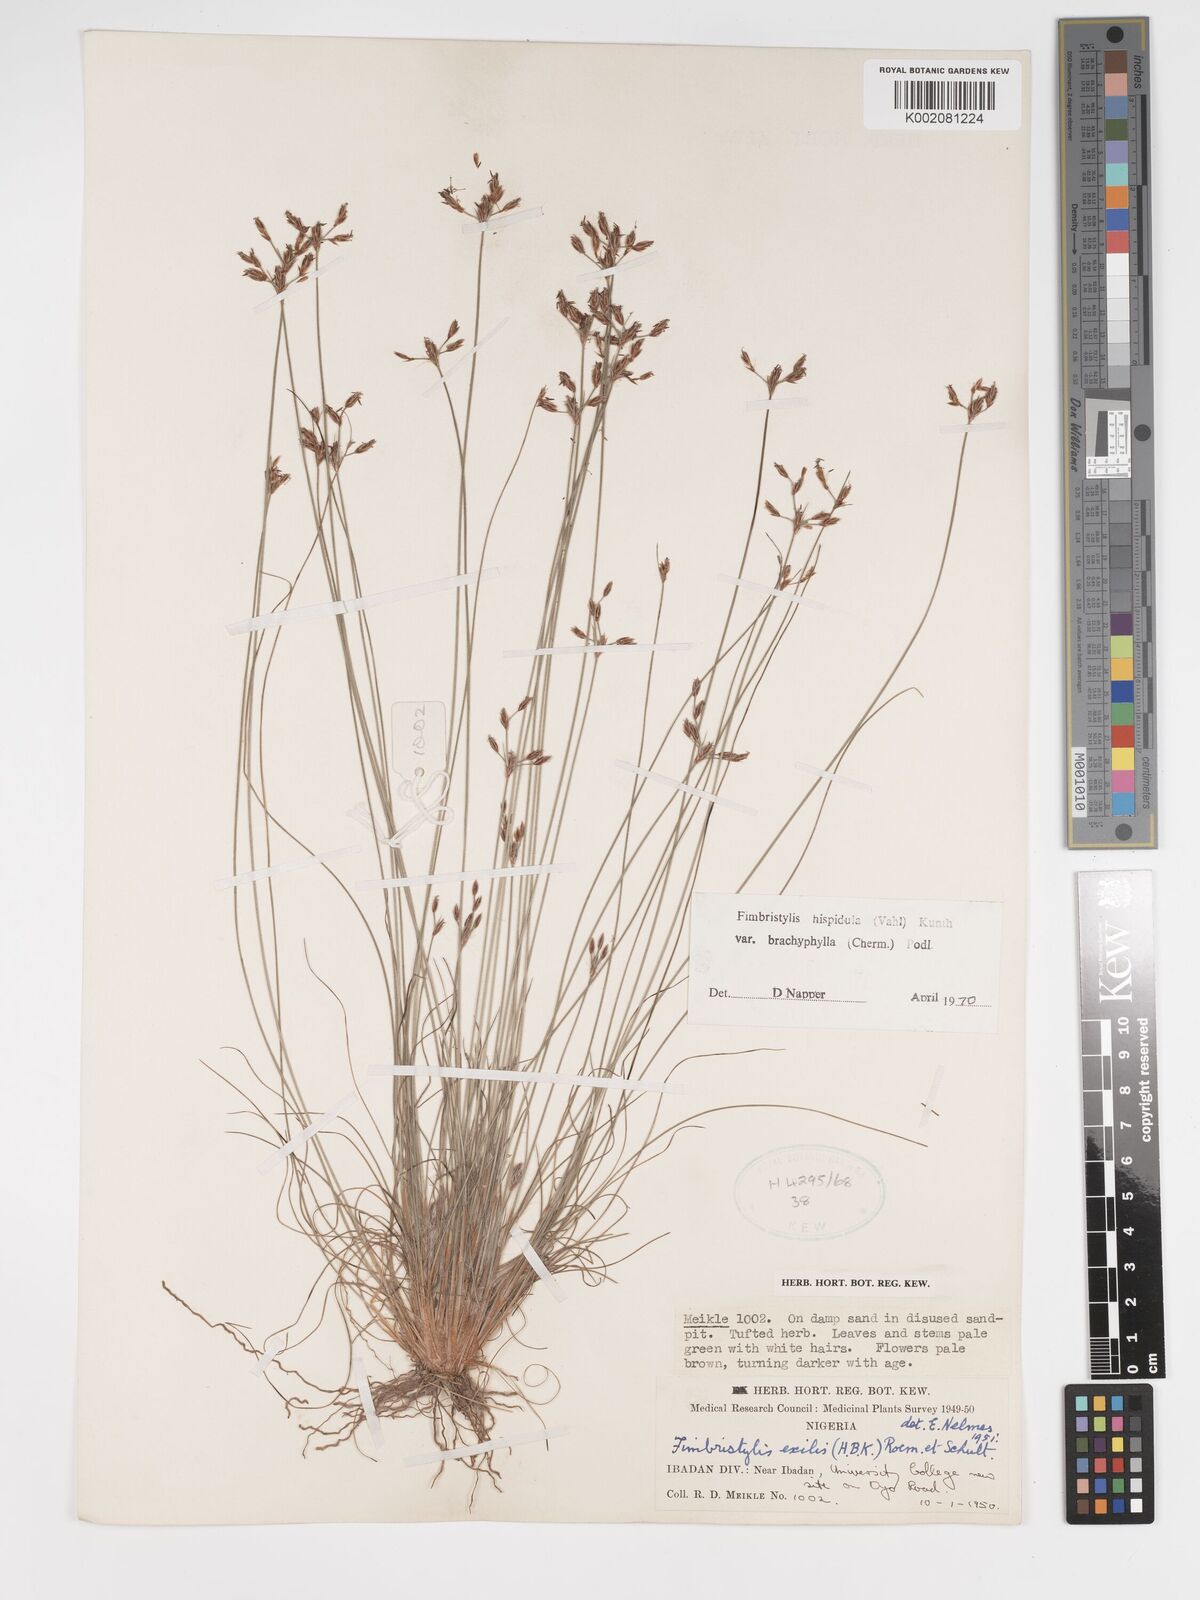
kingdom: Plantae
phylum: Tracheophyta
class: Liliopsida
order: Poales
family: Cyperaceae
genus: Bulbostylis
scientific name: Bulbostylis hispidula
